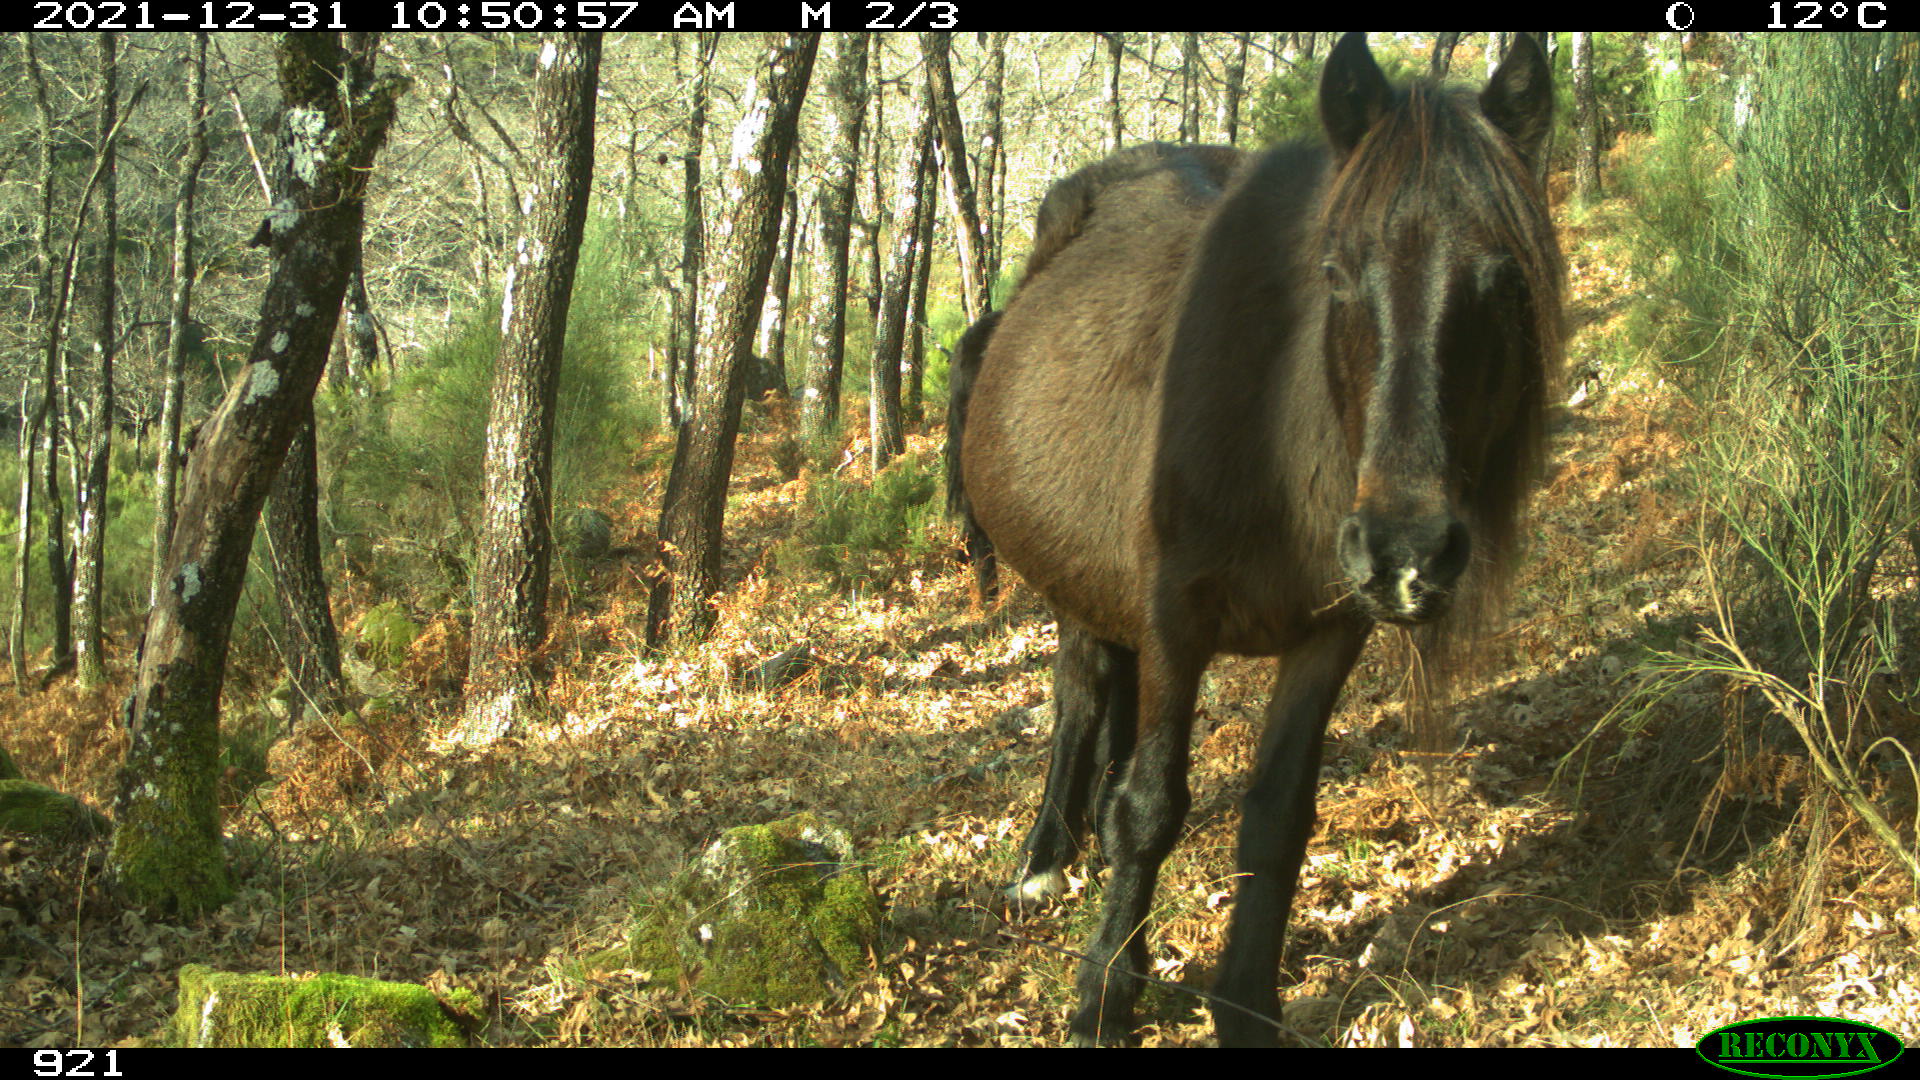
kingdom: Animalia
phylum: Chordata
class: Mammalia
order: Perissodactyla
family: Equidae
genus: Equus
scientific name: Equus caballus
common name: Horse
